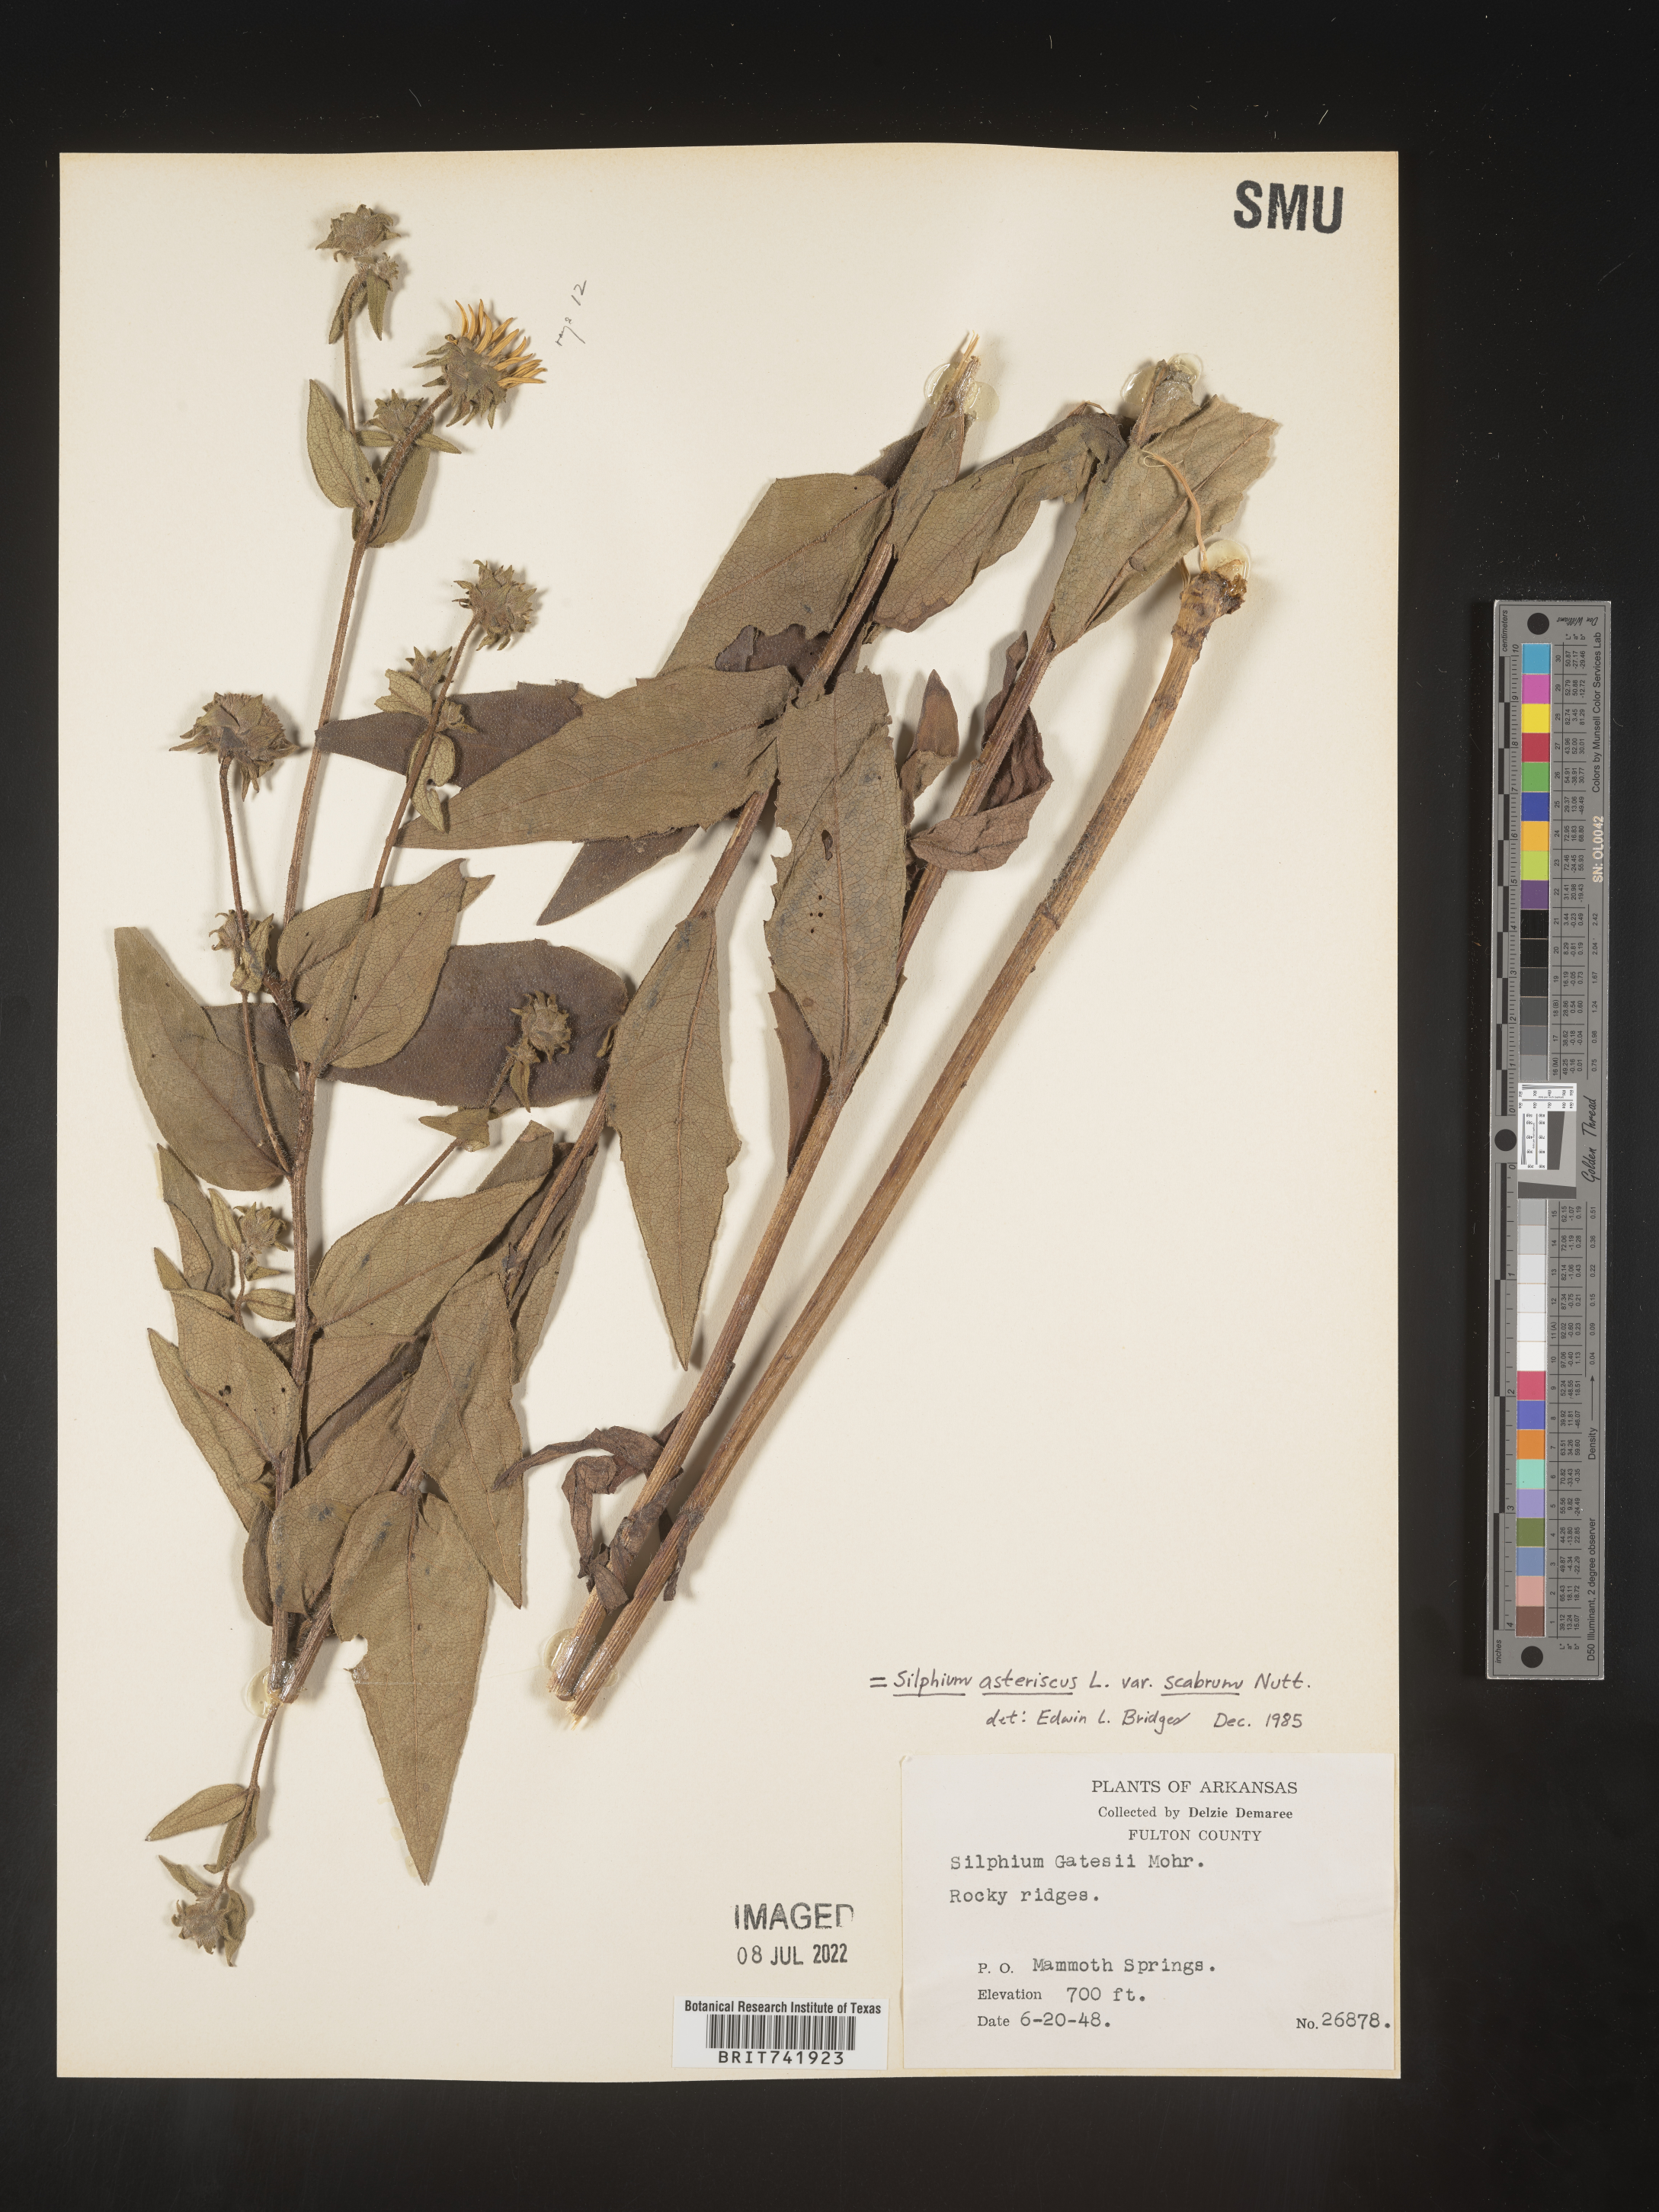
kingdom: Plantae
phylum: Tracheophyta
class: Magnoliopsida
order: Asterales
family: Asteraceae
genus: Silphium
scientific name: Silphium asperrimum
